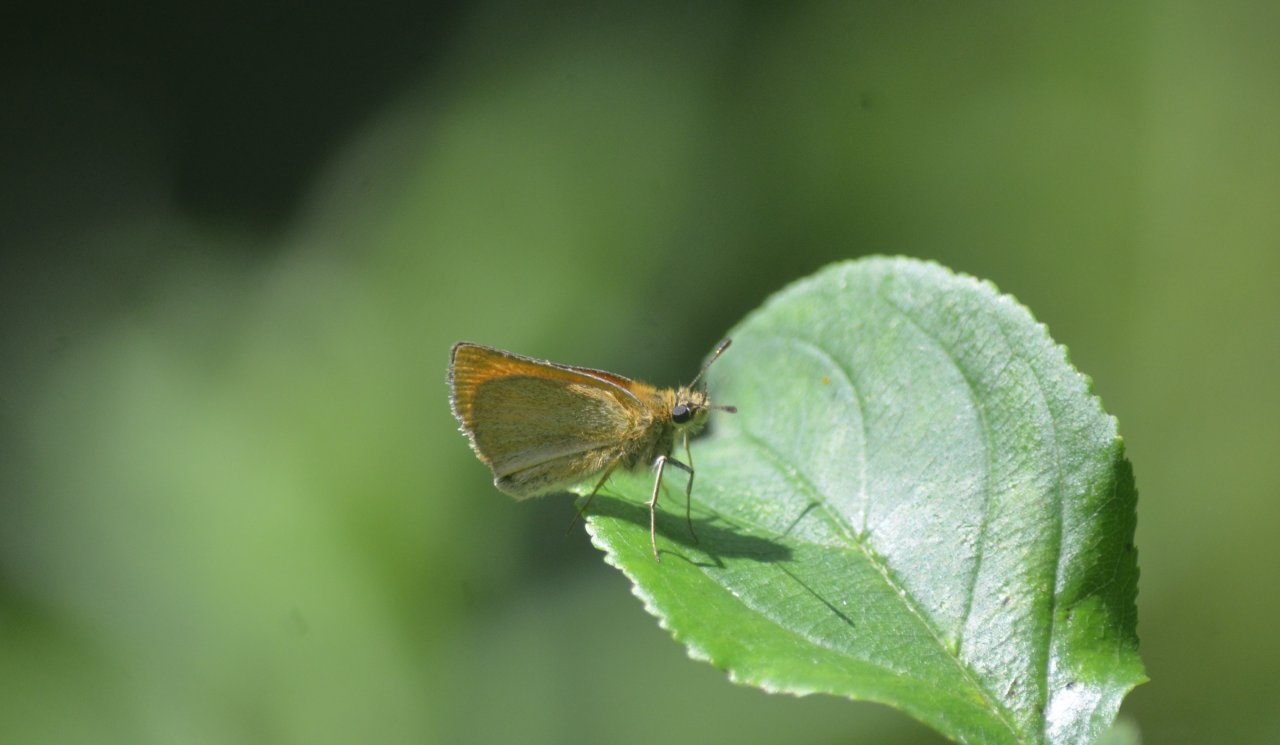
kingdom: Animalia
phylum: Arthropoda
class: Insecta
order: Lepidoptera
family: Hesperiidae
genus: Thymelicus
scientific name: Thymelicus lineola
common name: European Skipper
